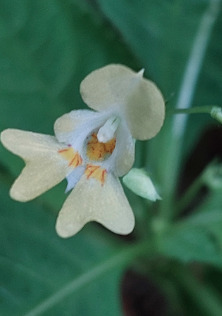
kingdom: Plantae
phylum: Tracheophyta
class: Magnoliopsida
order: Ericales
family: Balsaminaceae
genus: Impatiens
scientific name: Impatiens parviflora
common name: Småblomstret balsamin
